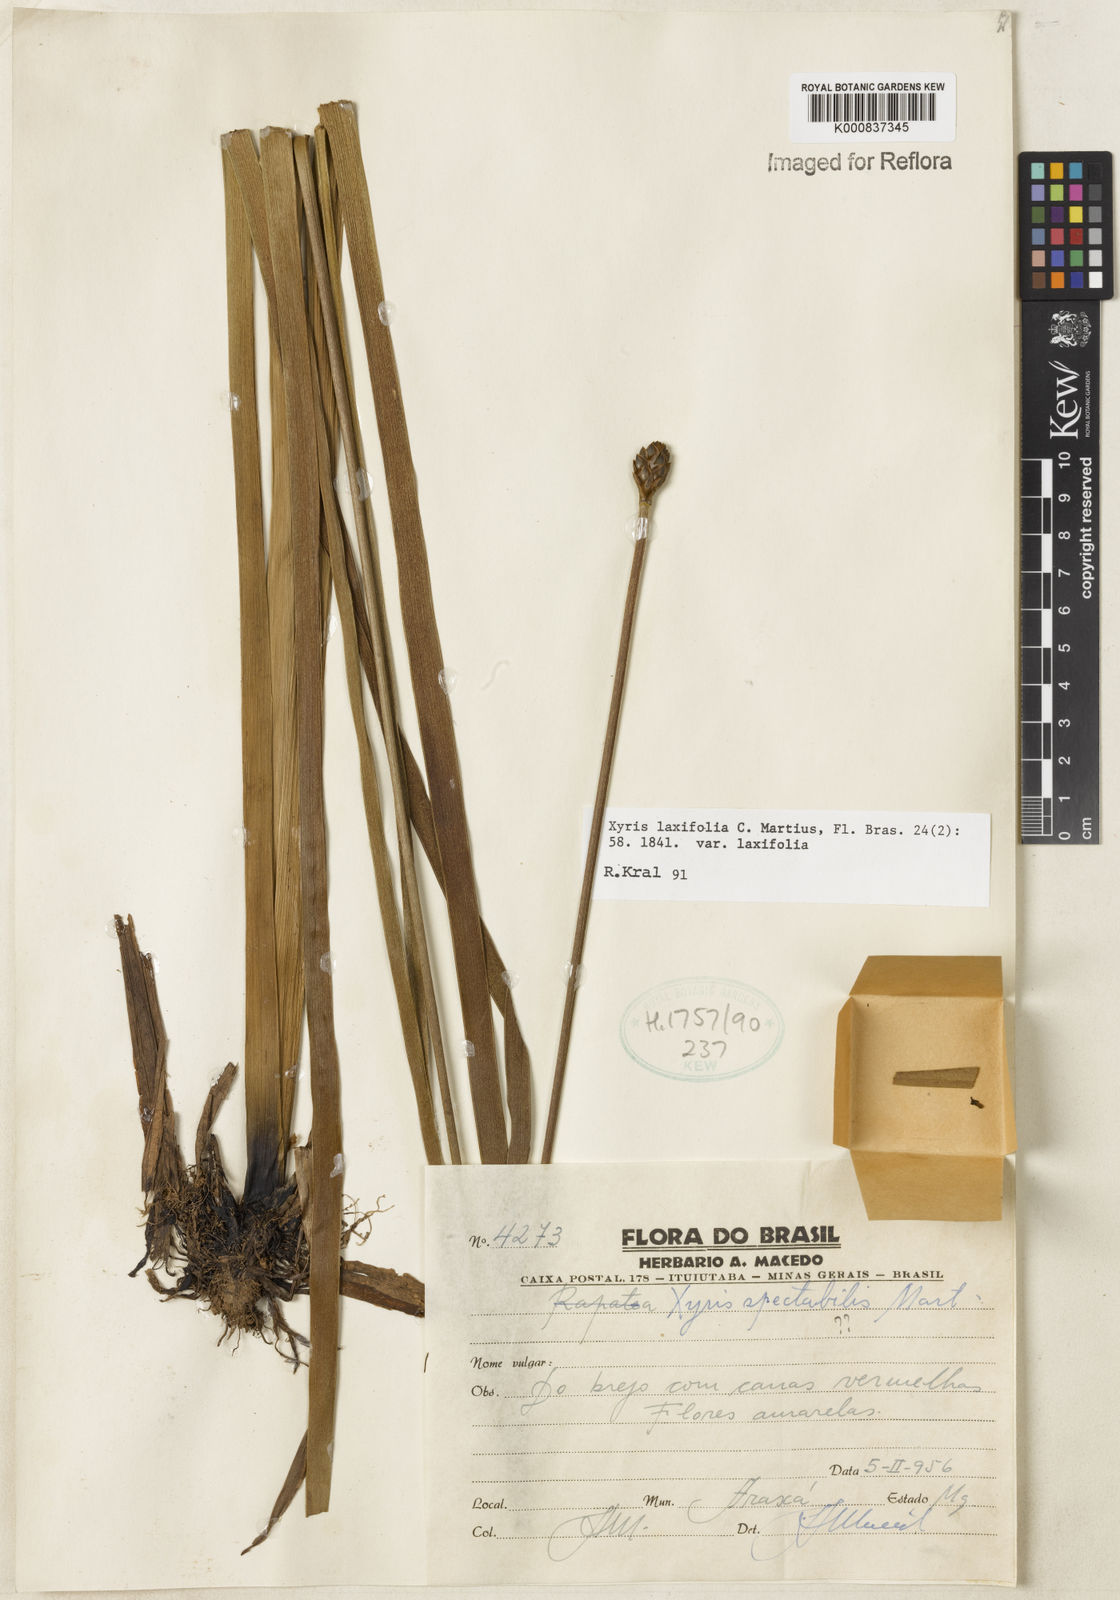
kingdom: Plantae
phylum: Tracheophyta
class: Liliopsida
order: Poales
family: Xyridaceae
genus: Xyris
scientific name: Xyris laxifolia
